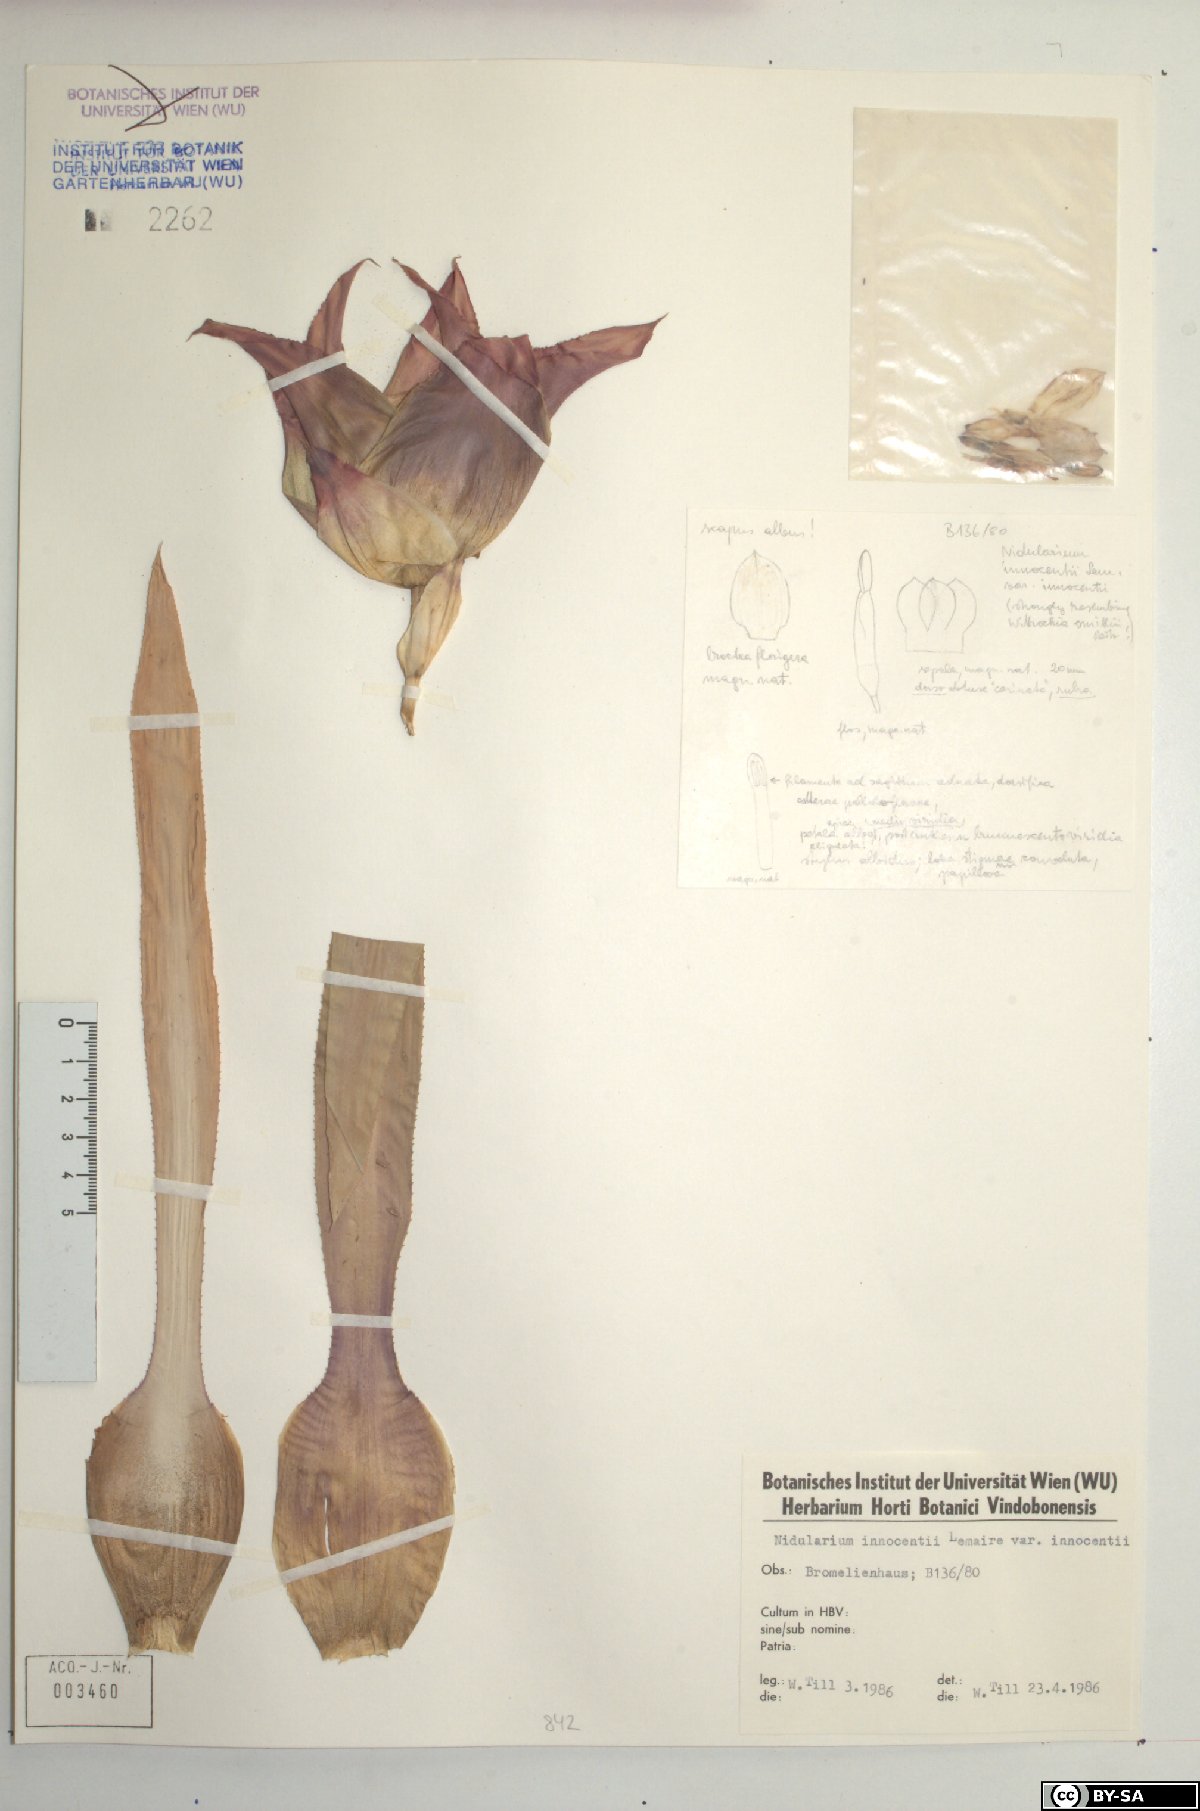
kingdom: Plantae
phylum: Tracheophyta
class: Liliopsida
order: Poales
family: Bromeliaceae
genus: Nidularium
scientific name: Nidularium innocentii
